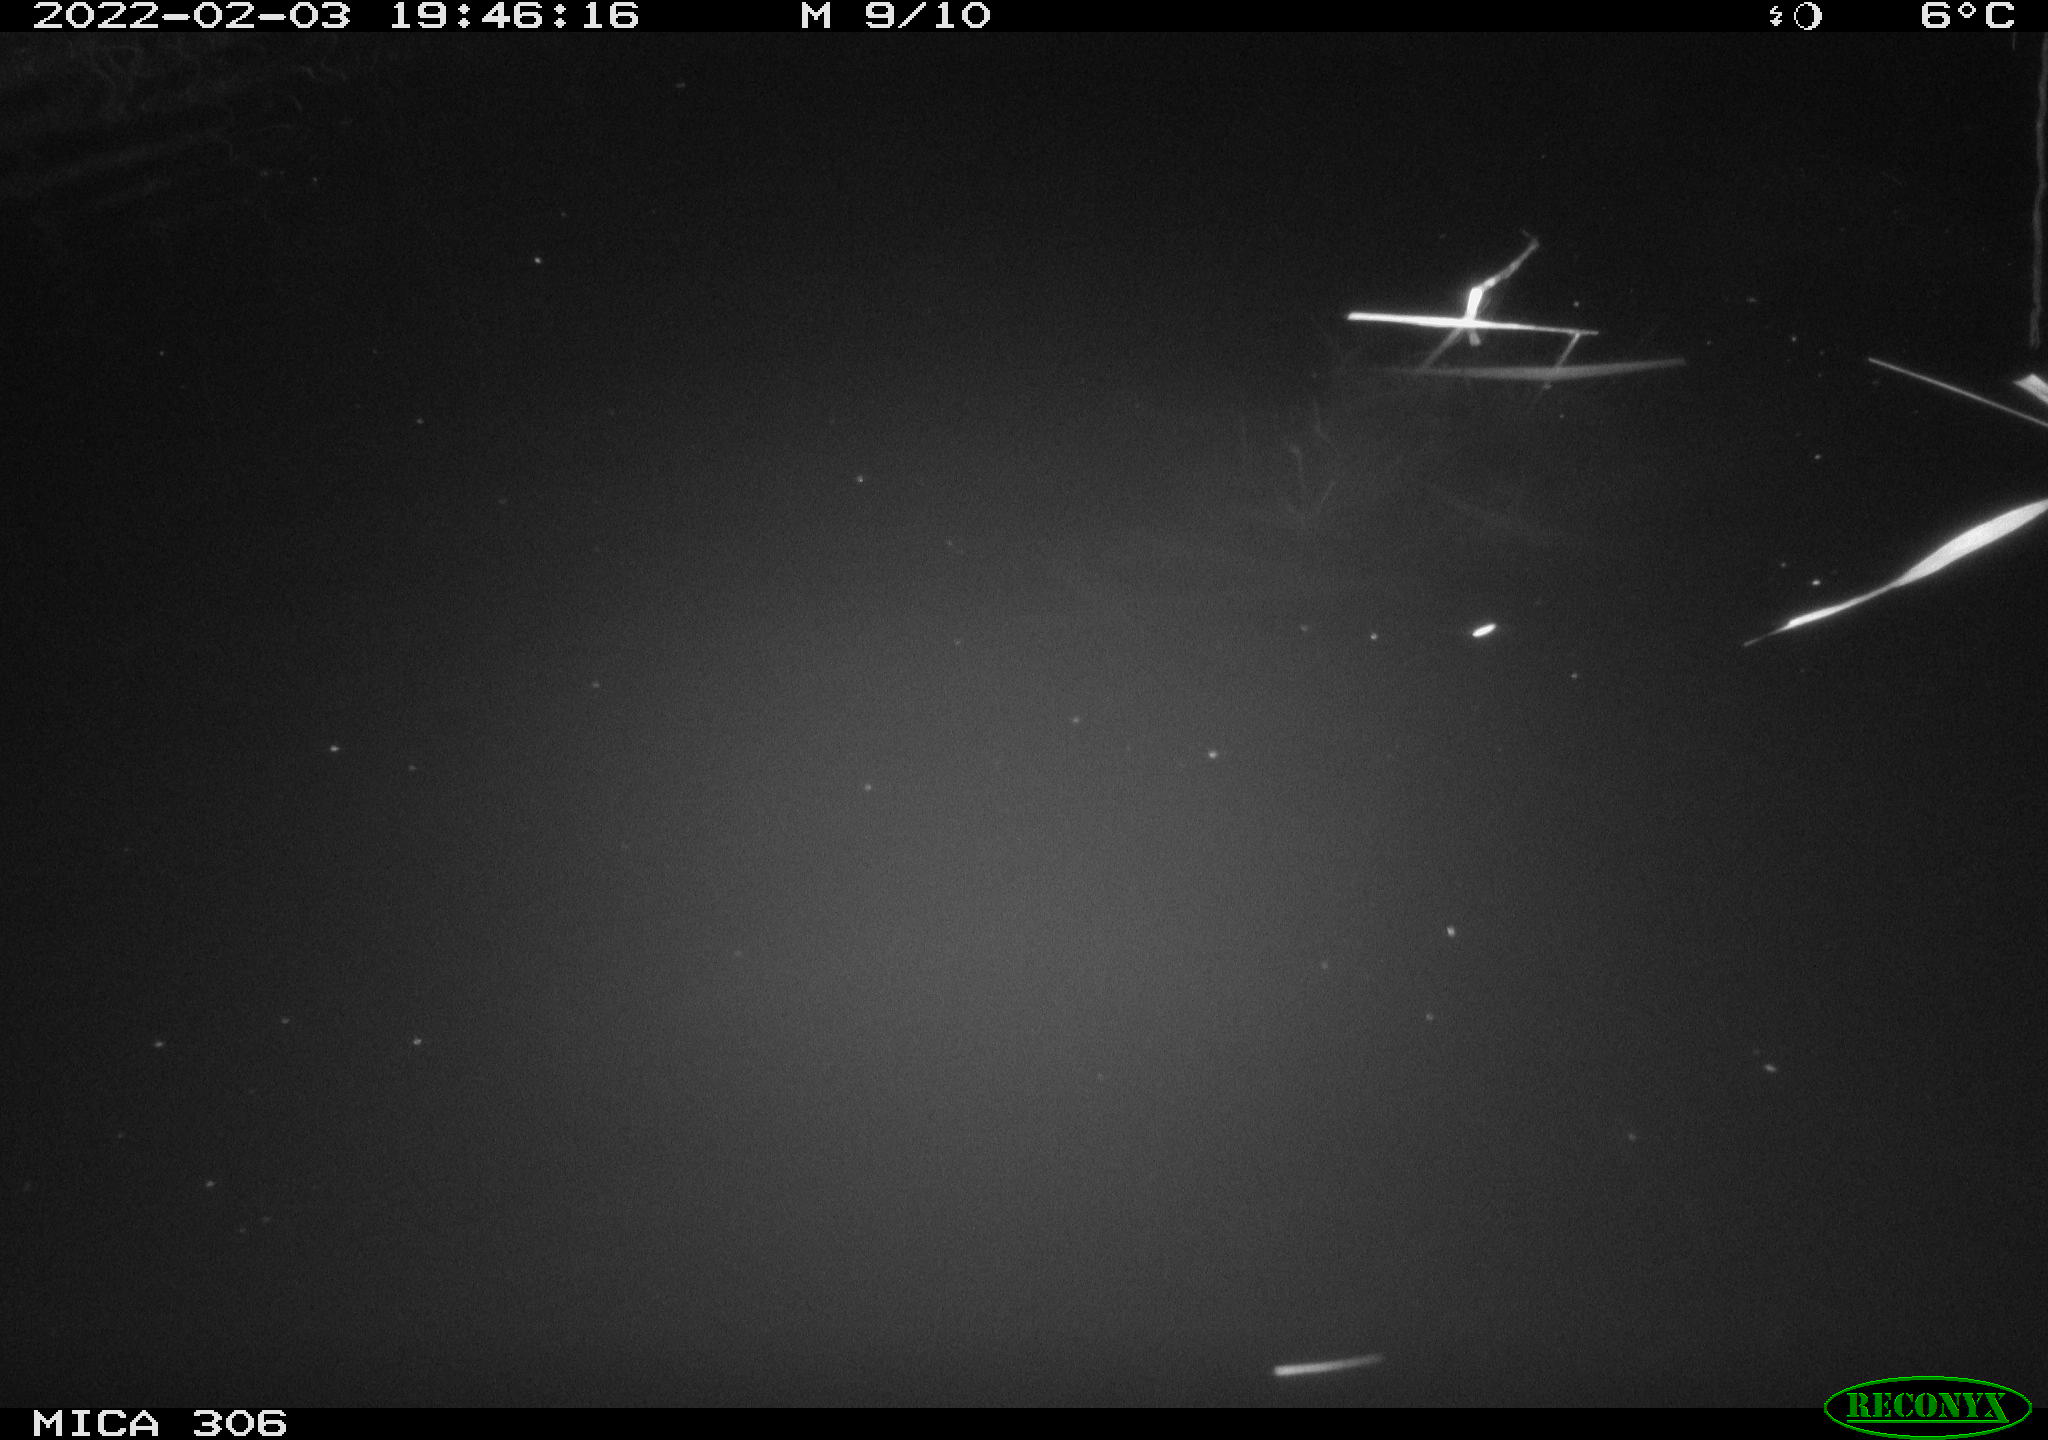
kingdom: Animalia
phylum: Chordata
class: Mammalia
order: Rodentia
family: Cricetidae
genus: Ondatra
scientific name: Ondatra zibethicus
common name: Muskrat
